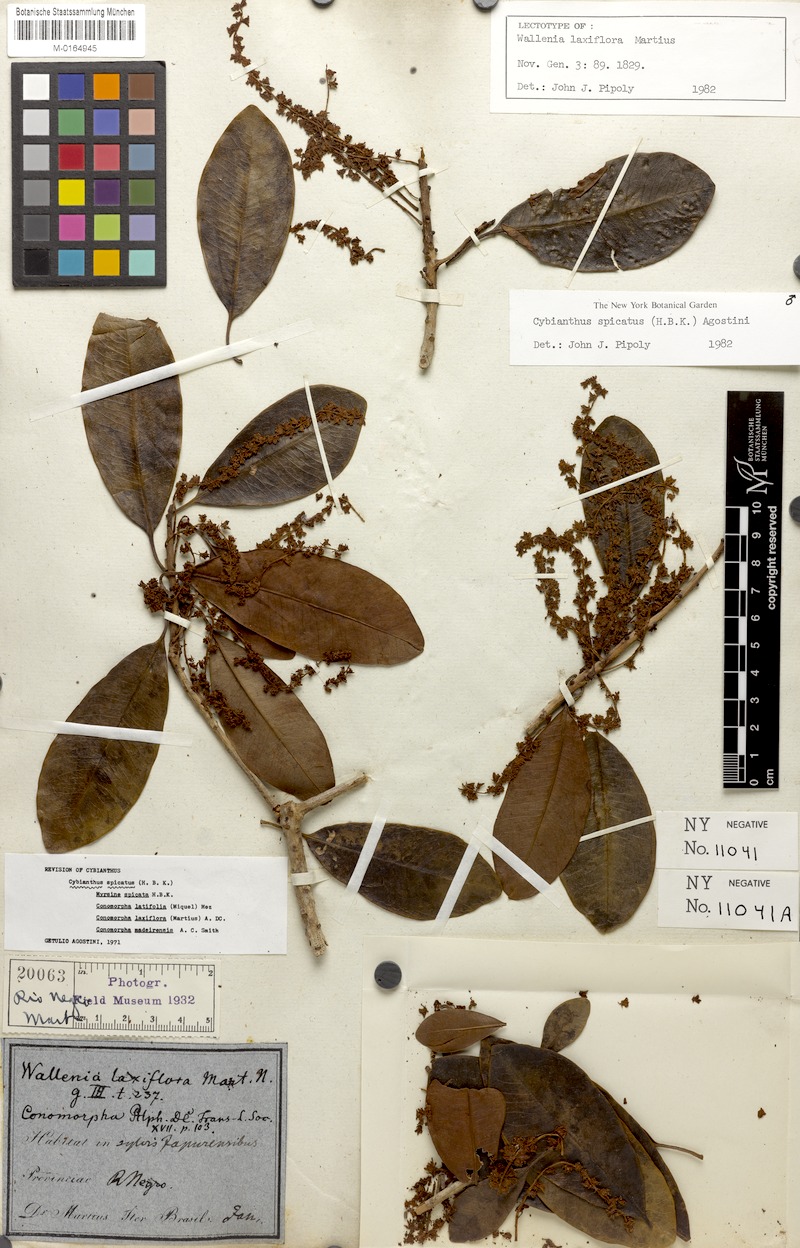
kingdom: Plantae
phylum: Tracheophyta
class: Magnoliopsida
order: Ericales
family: Primulaceae
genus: Cybianthus
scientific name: Cybianthus spicatus
